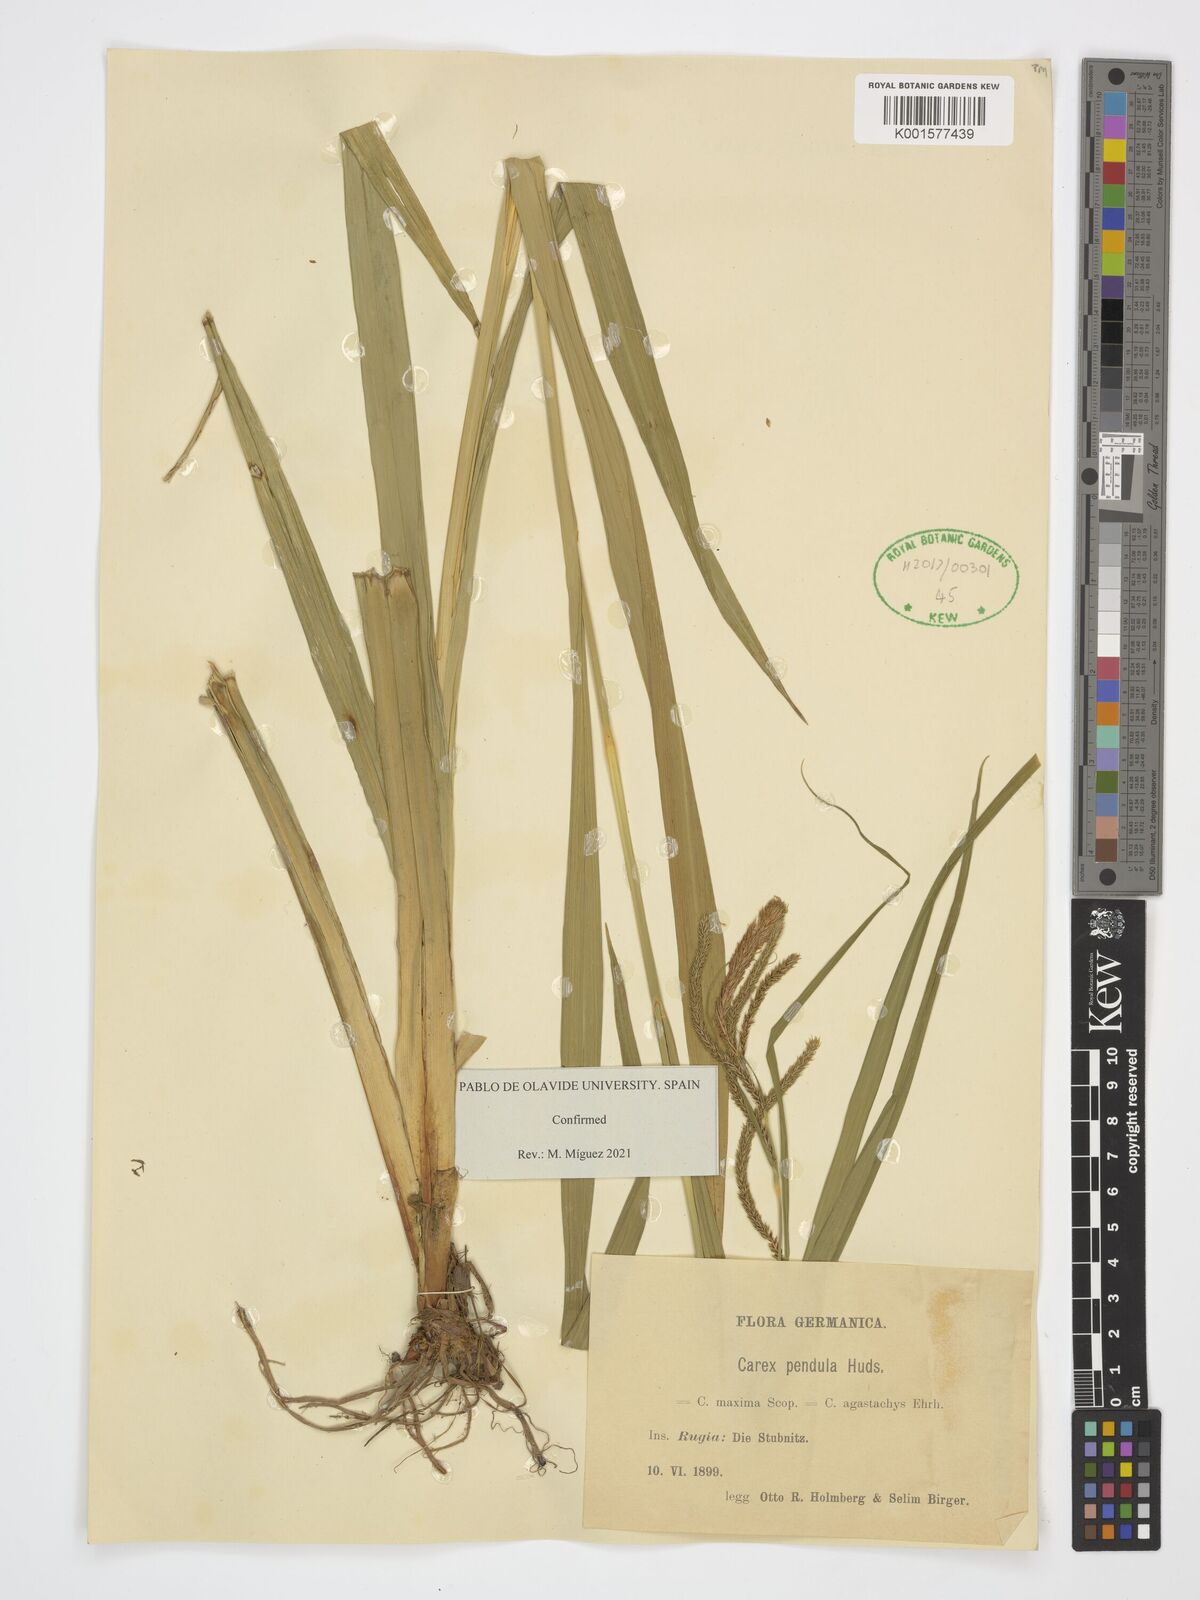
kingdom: Plantae
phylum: Tracheophyta
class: Liliopsida
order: Poales
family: Cyperaceae
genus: Carex
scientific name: Carex pendula
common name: Pendulous sedge
